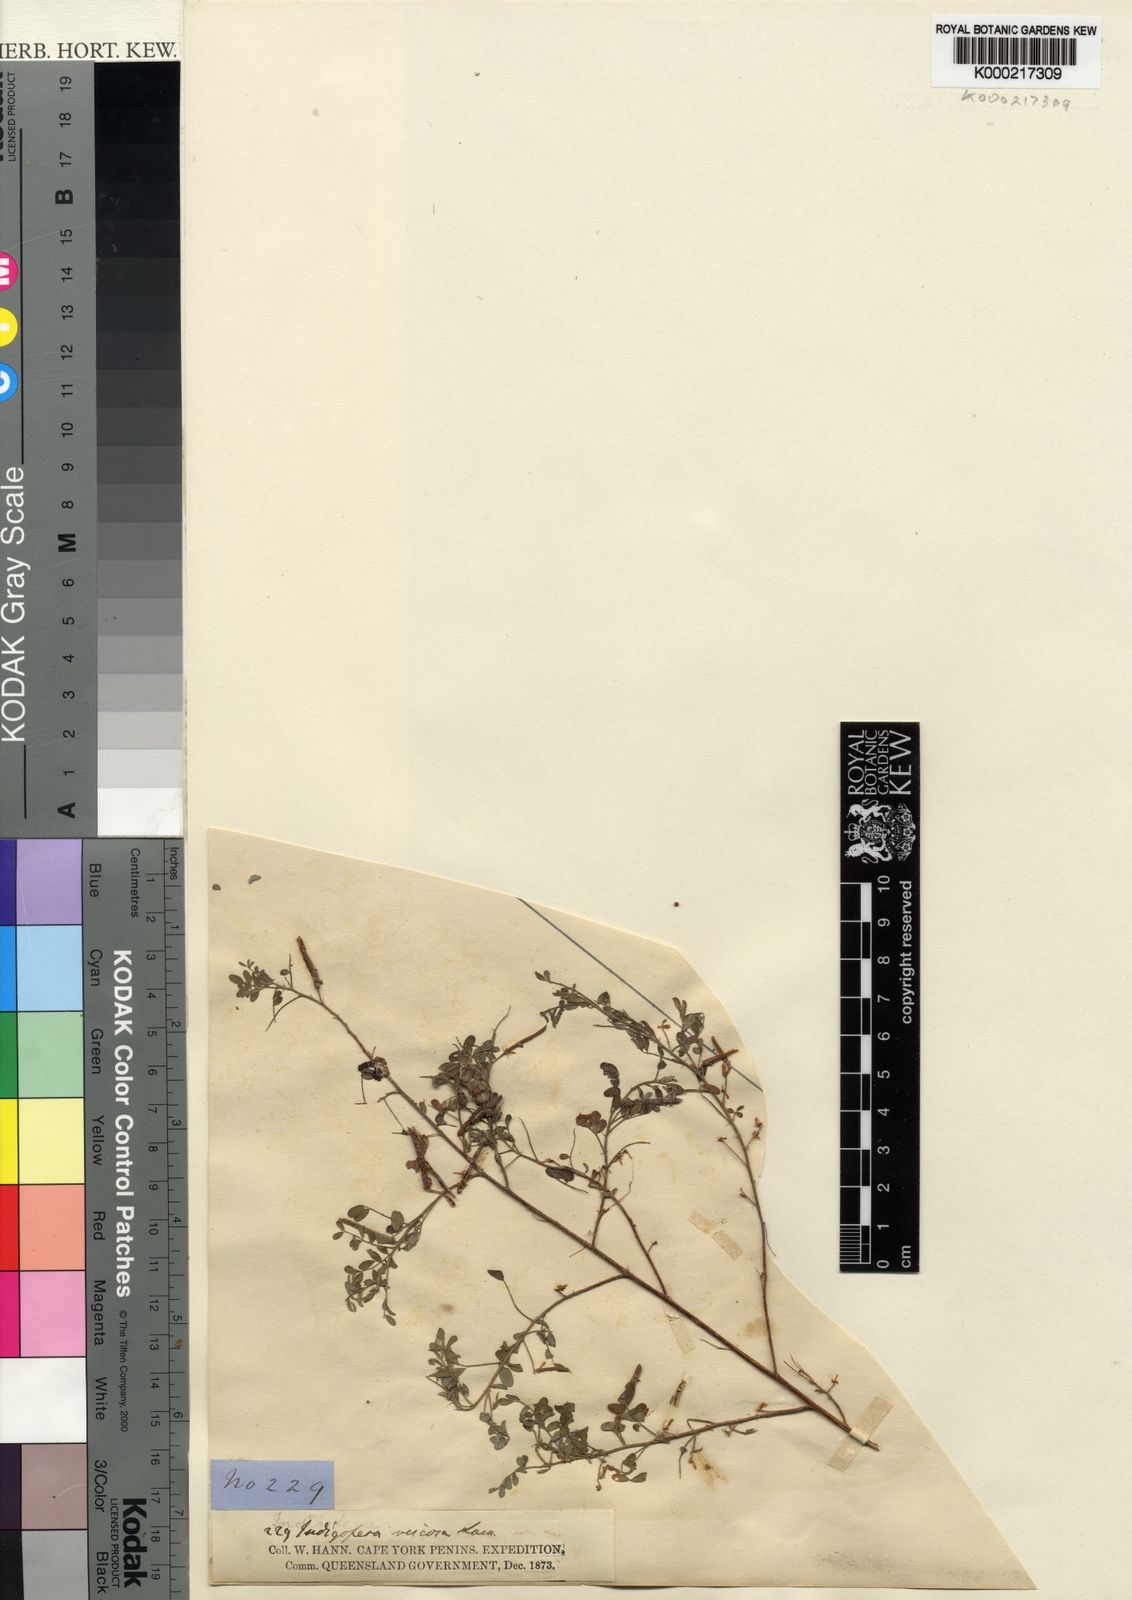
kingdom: Plantae
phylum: Tracheophyta
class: Magnoliopsida
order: Fabales
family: Fabaceae
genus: Indigofera
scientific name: Indigofera colutea
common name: Rusty indigo
